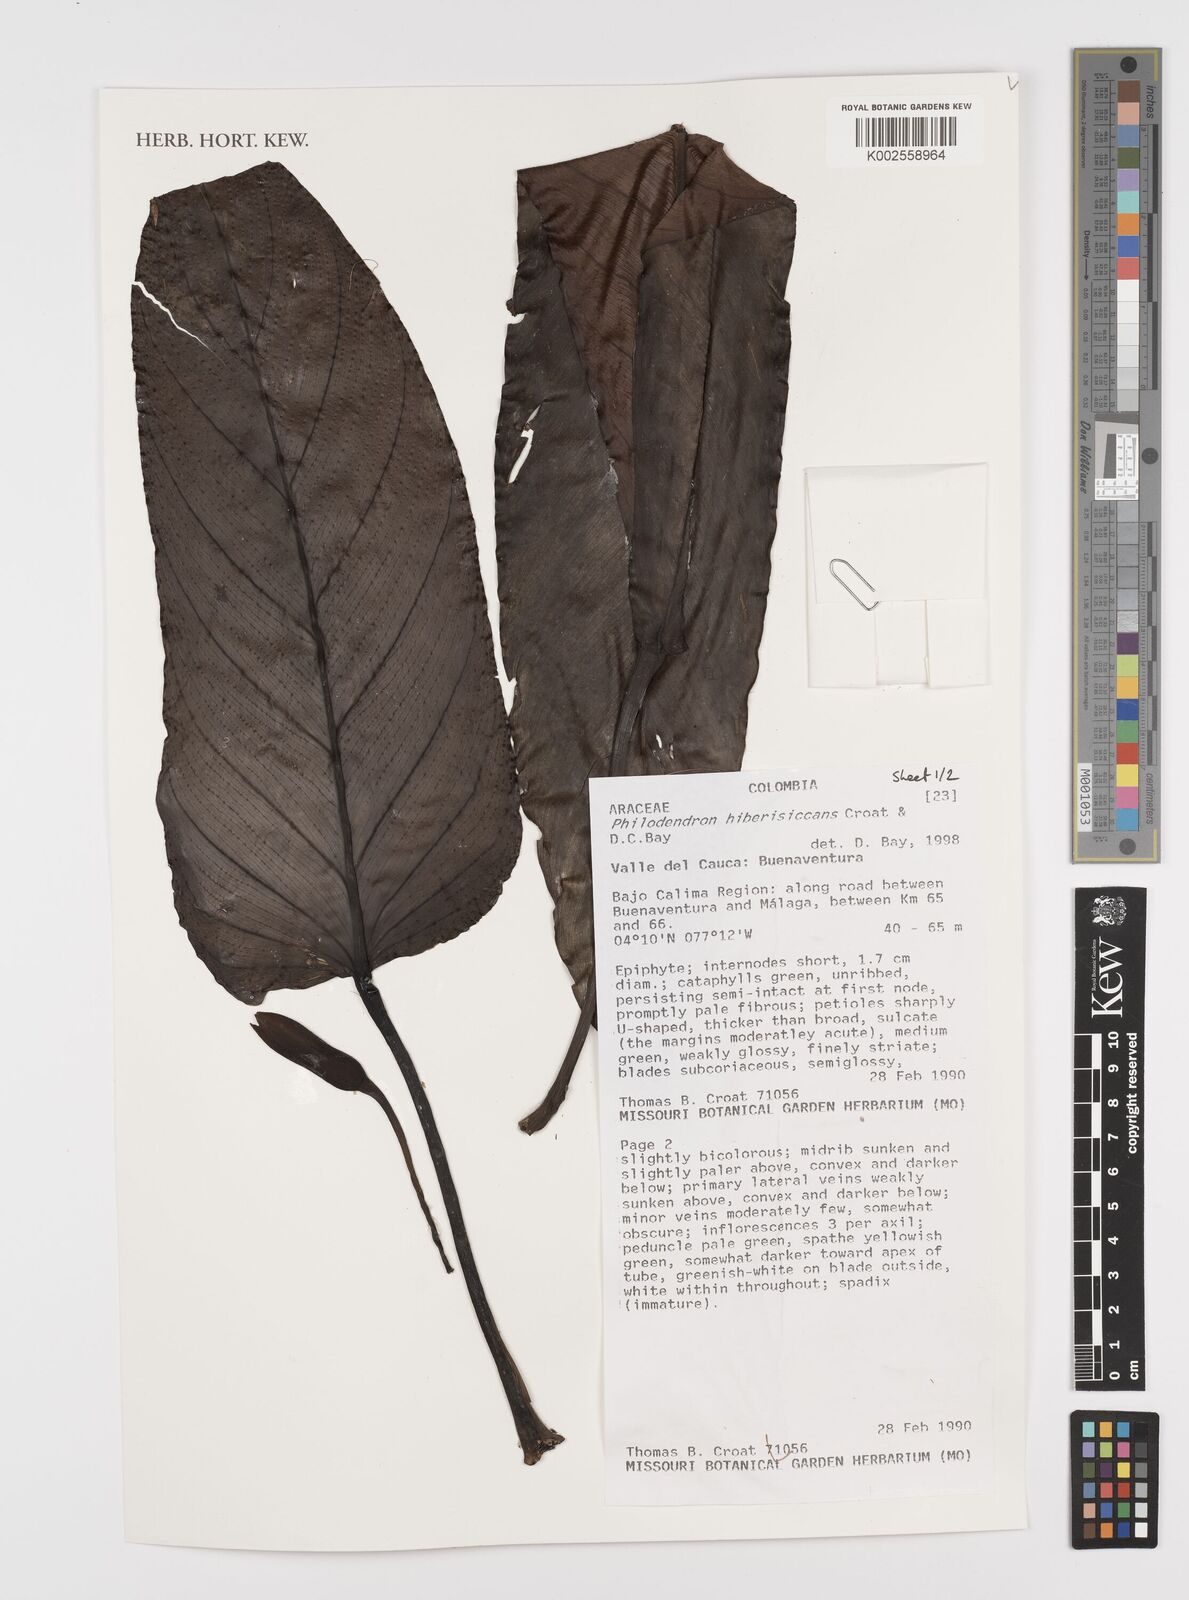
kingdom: Plantae
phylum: Tracheophyta
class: Liliopsida
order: Alismatales
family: Araceae
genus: Philodendron
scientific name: Philodendron hiberisiccans
